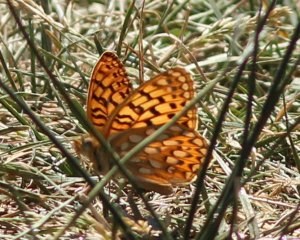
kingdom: Animalia
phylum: Arthropoda
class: Insecta
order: Lepidoptera
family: Nymphalidae
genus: Speyeria
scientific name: Speyeria callippe
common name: Callippe Fritillary
